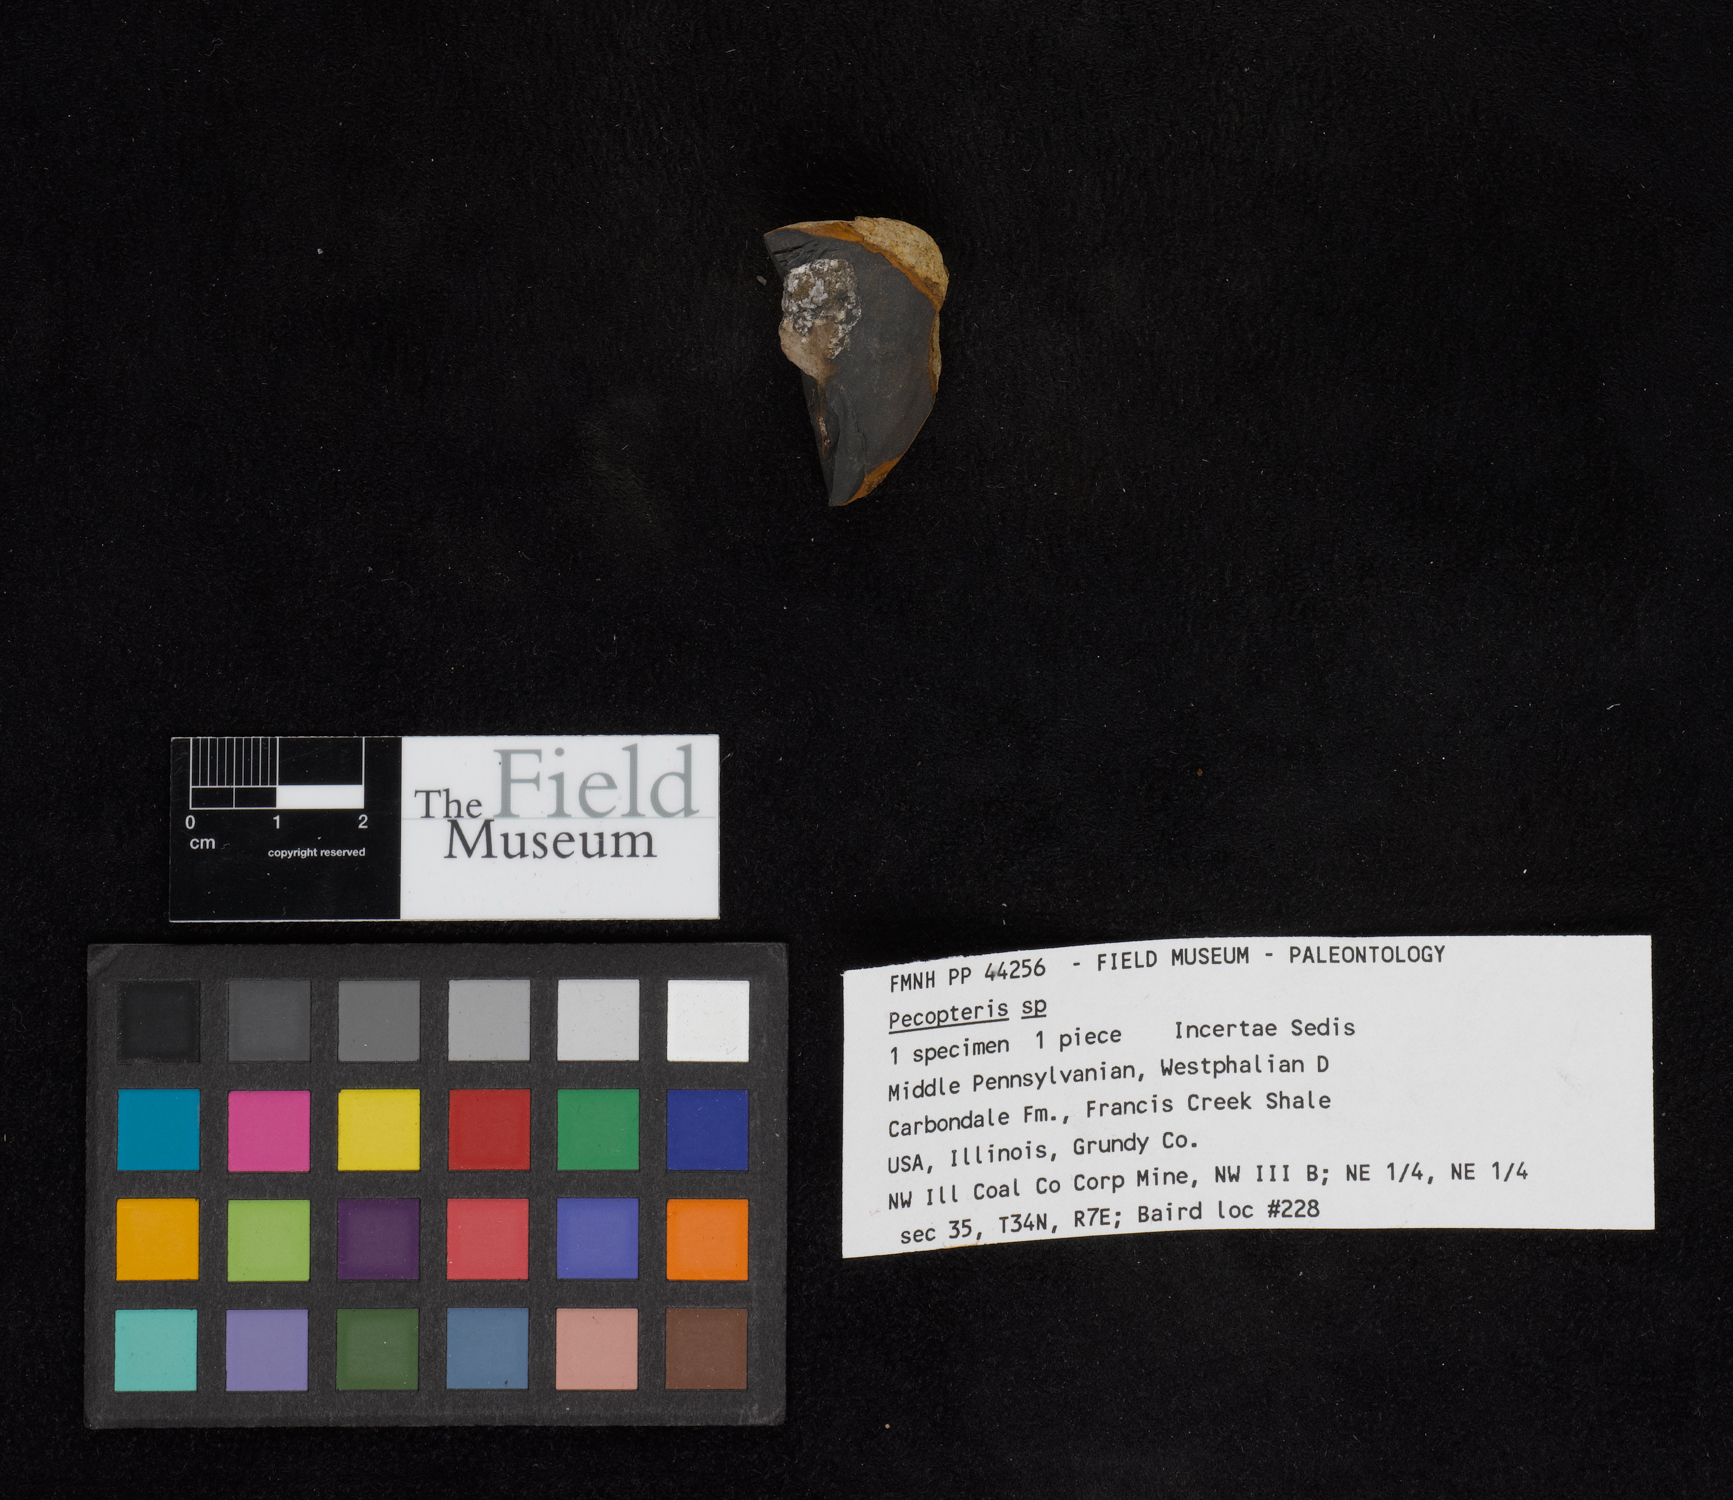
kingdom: Plantae
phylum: Tracheophyta
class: Polypodiopsida
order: Marattiales
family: Asterothecaceae
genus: Pecopteris
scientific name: Pecopteris
